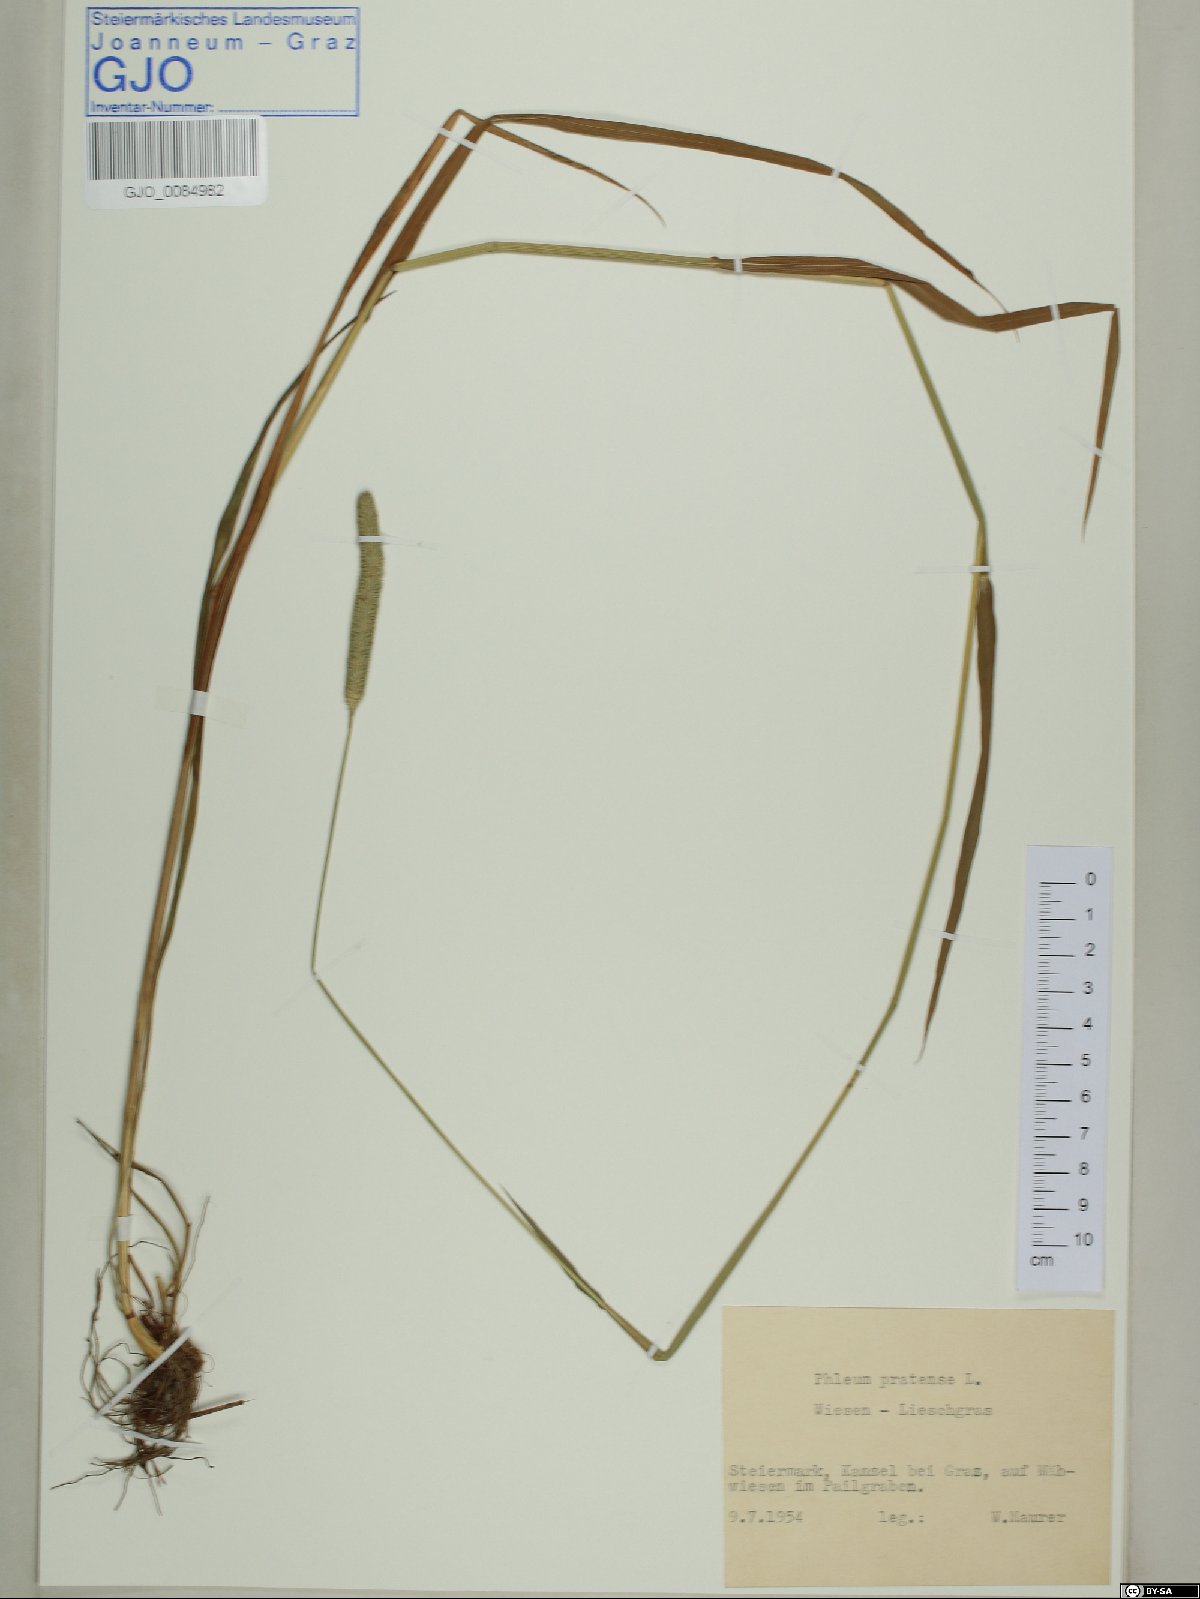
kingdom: Plantae
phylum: Tracheophyta
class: Liliopsida
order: Poales
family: Poaceae
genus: Phleum
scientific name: Phleum pratense
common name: Timothy grass
